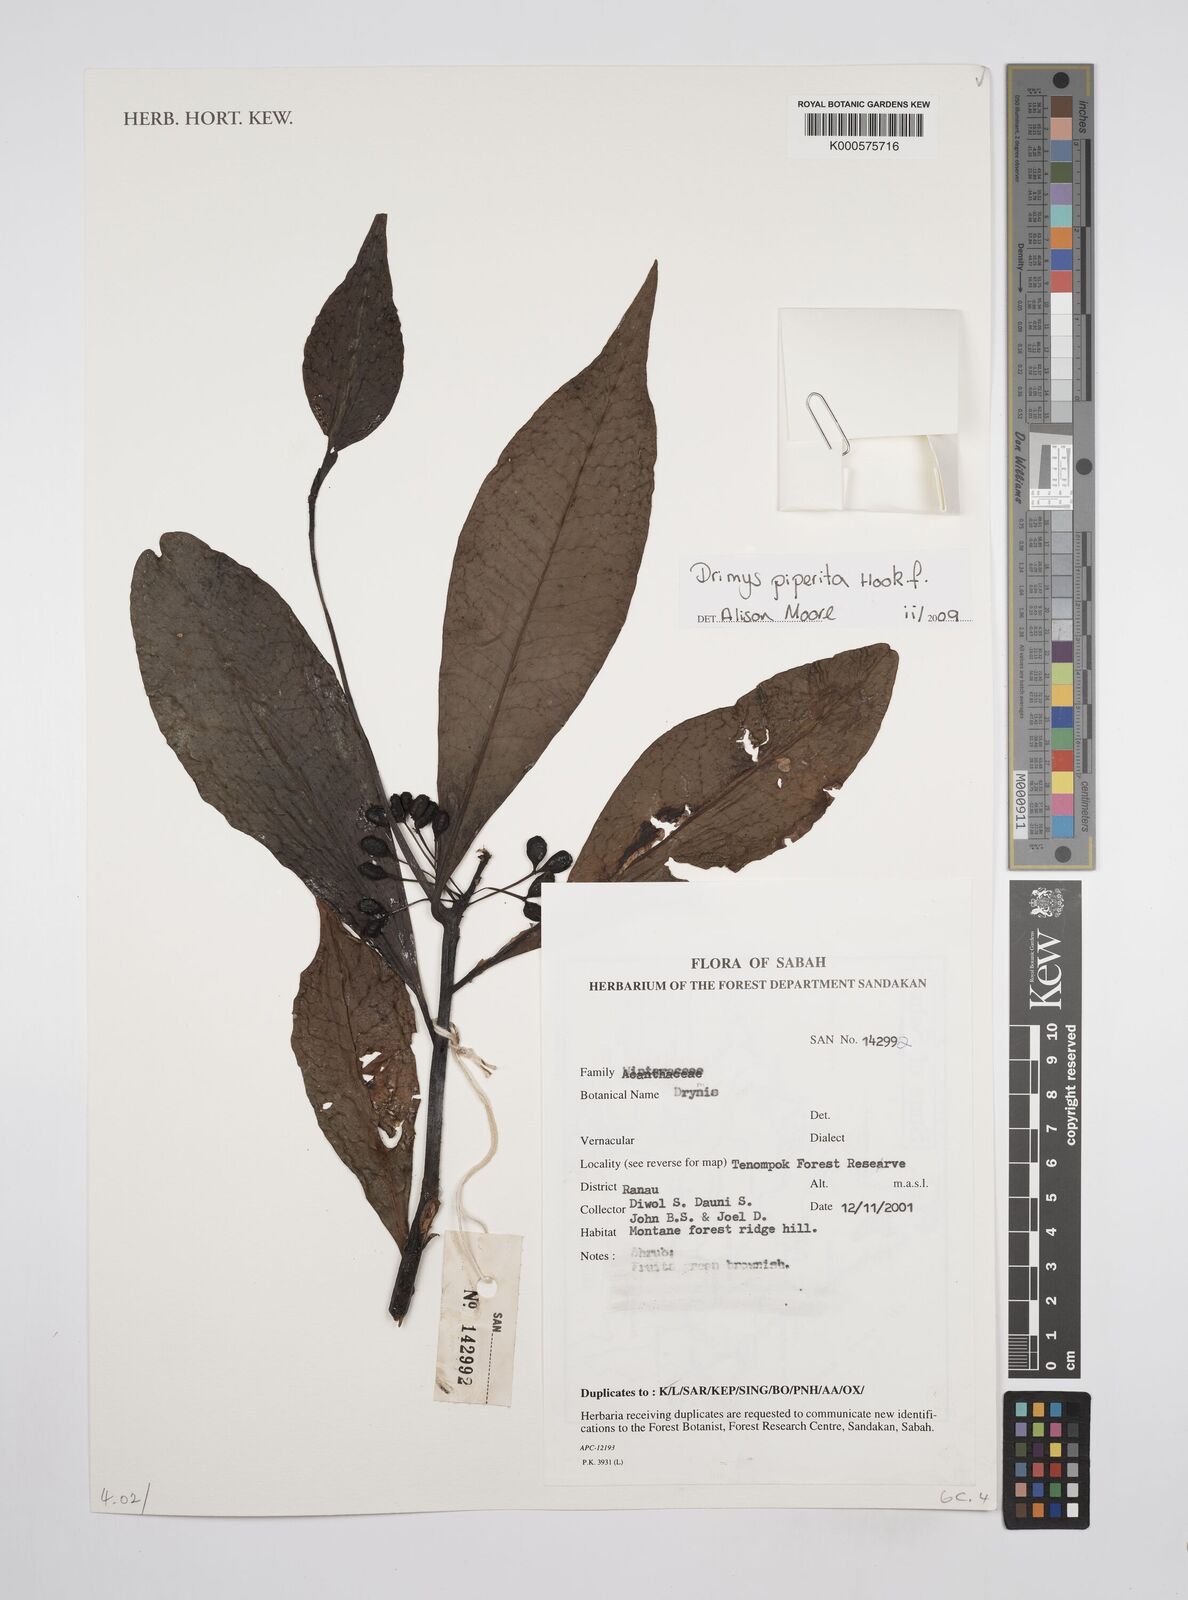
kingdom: Plantae
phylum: Tracheophyta
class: Magnoliopsida
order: Canellales
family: Winteraceae
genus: Drimys
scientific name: Drimys piperita
